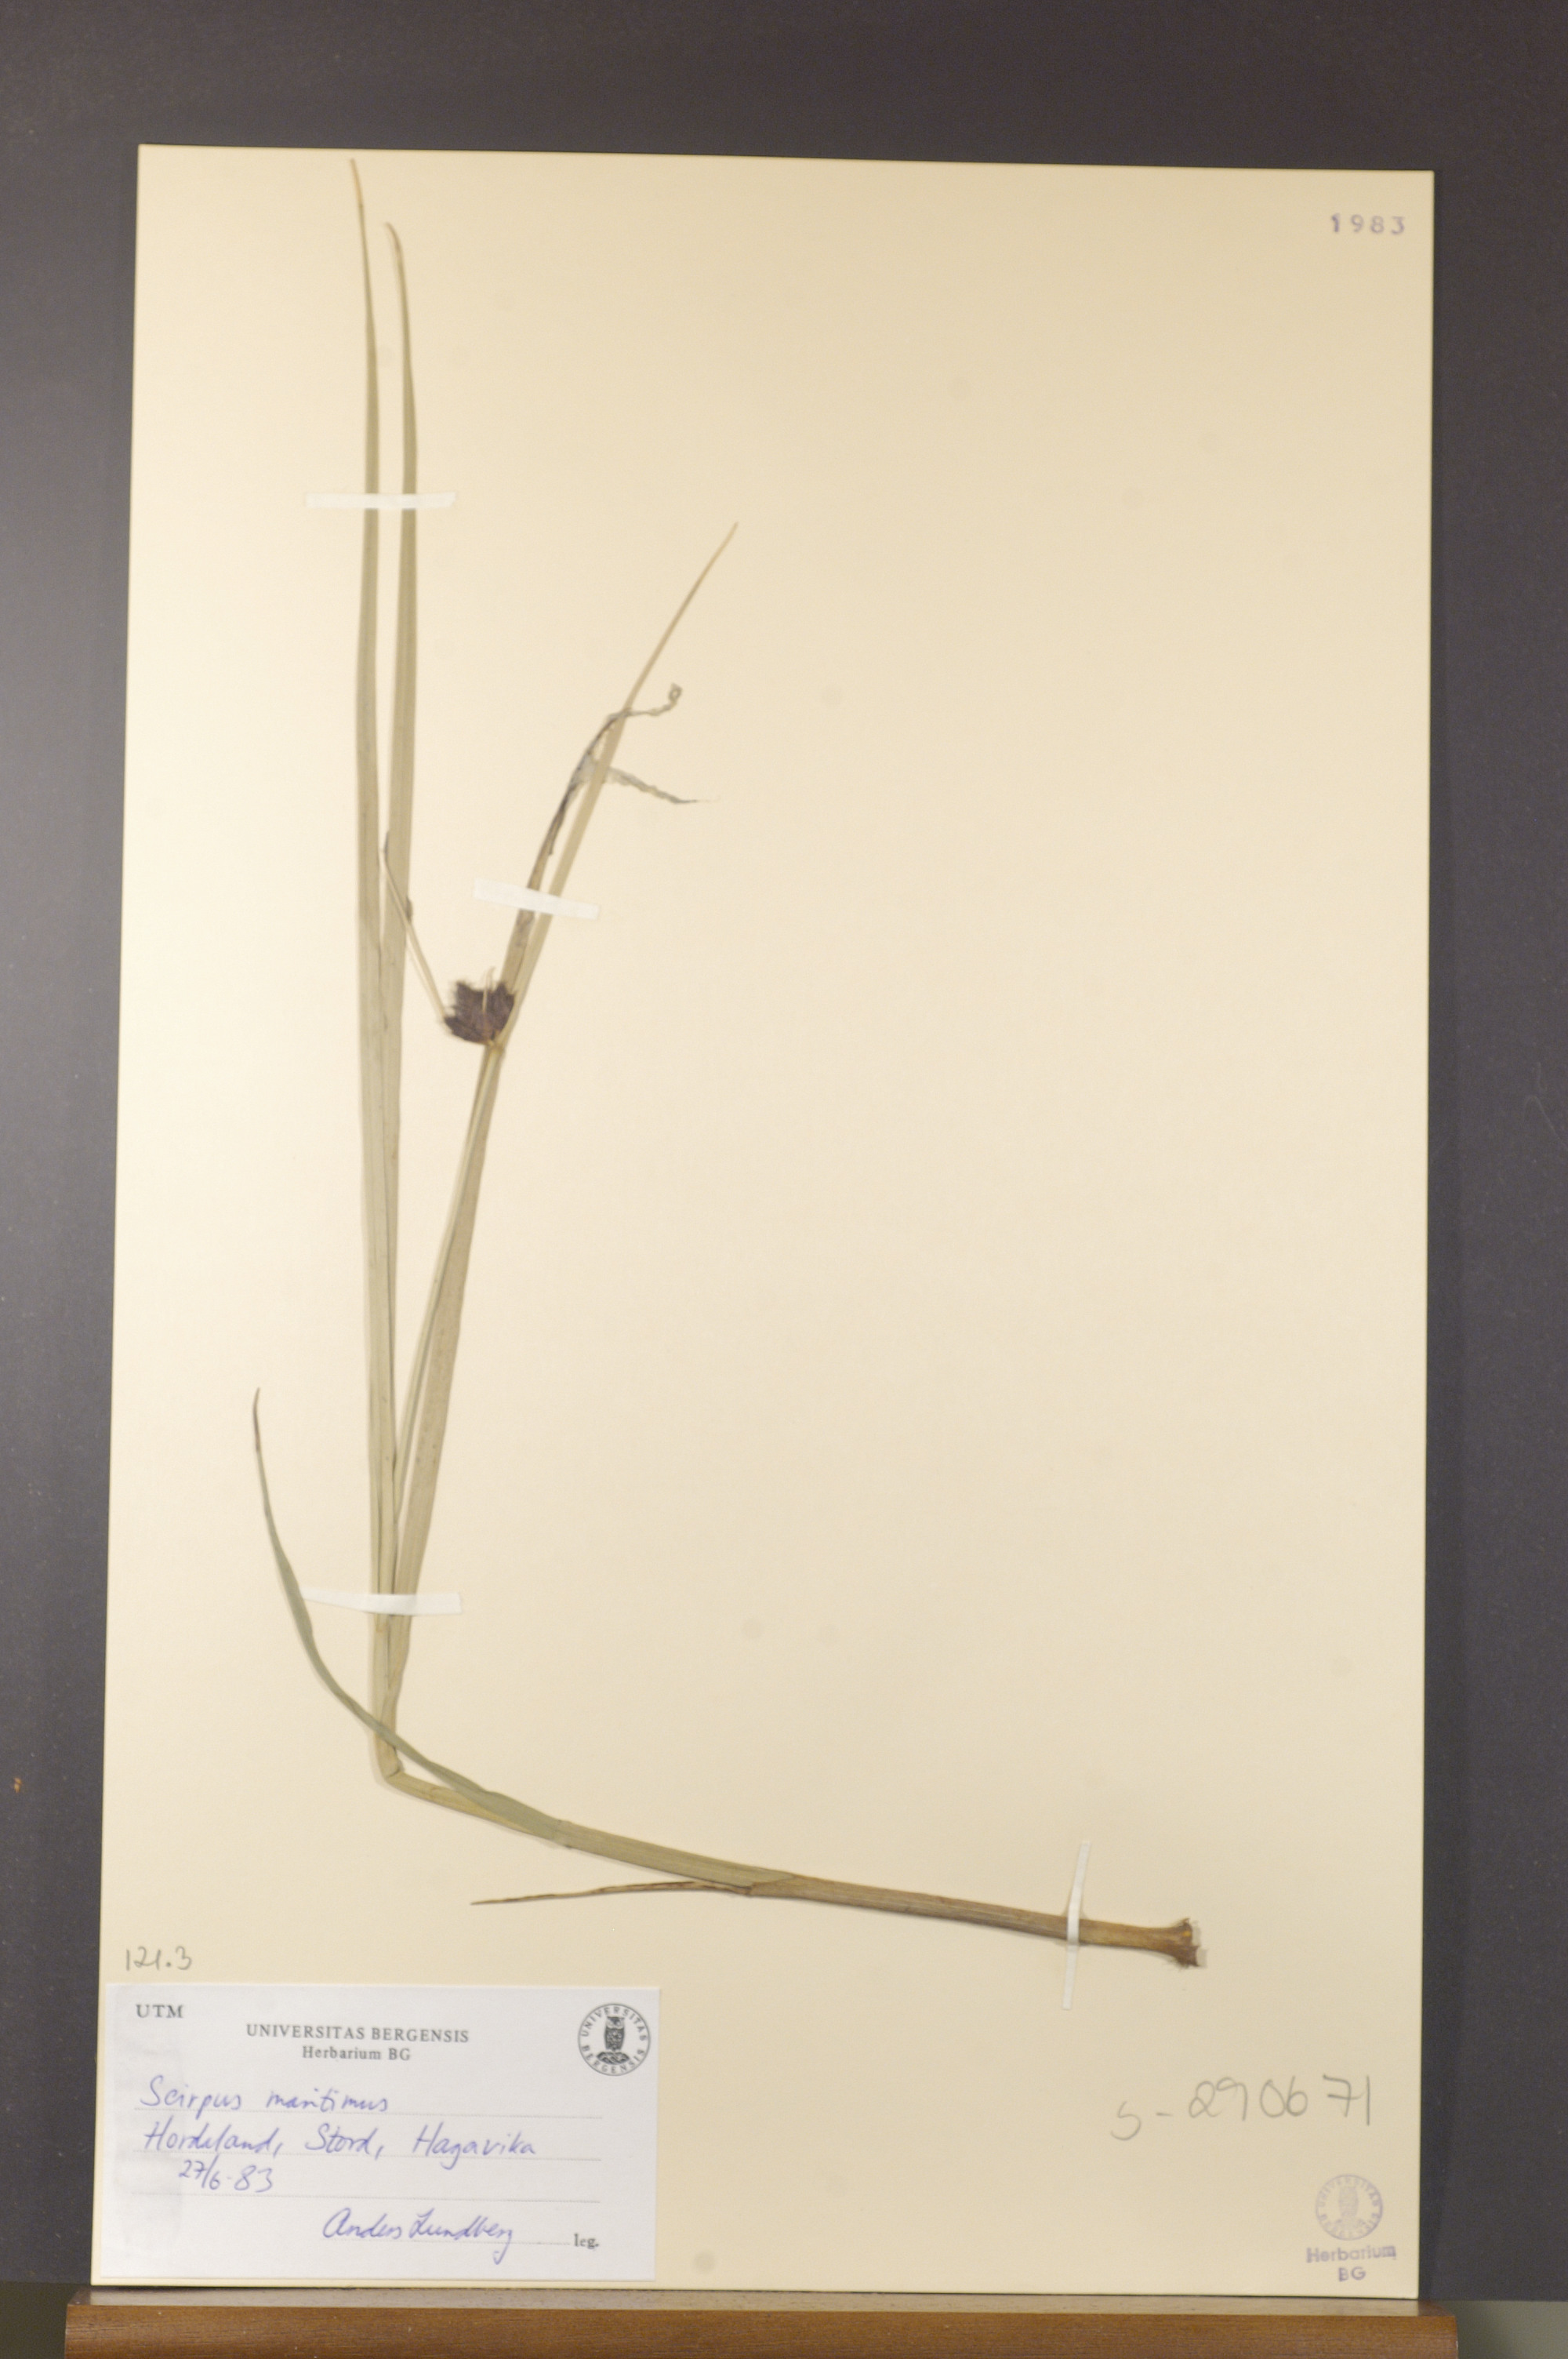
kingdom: Plantae
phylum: Tracheophyta
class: Liliopsida
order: Poales
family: Cyperaceae
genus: Bolboschoenus
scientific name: Bolboschoenus maritimus
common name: Sea club-rush
